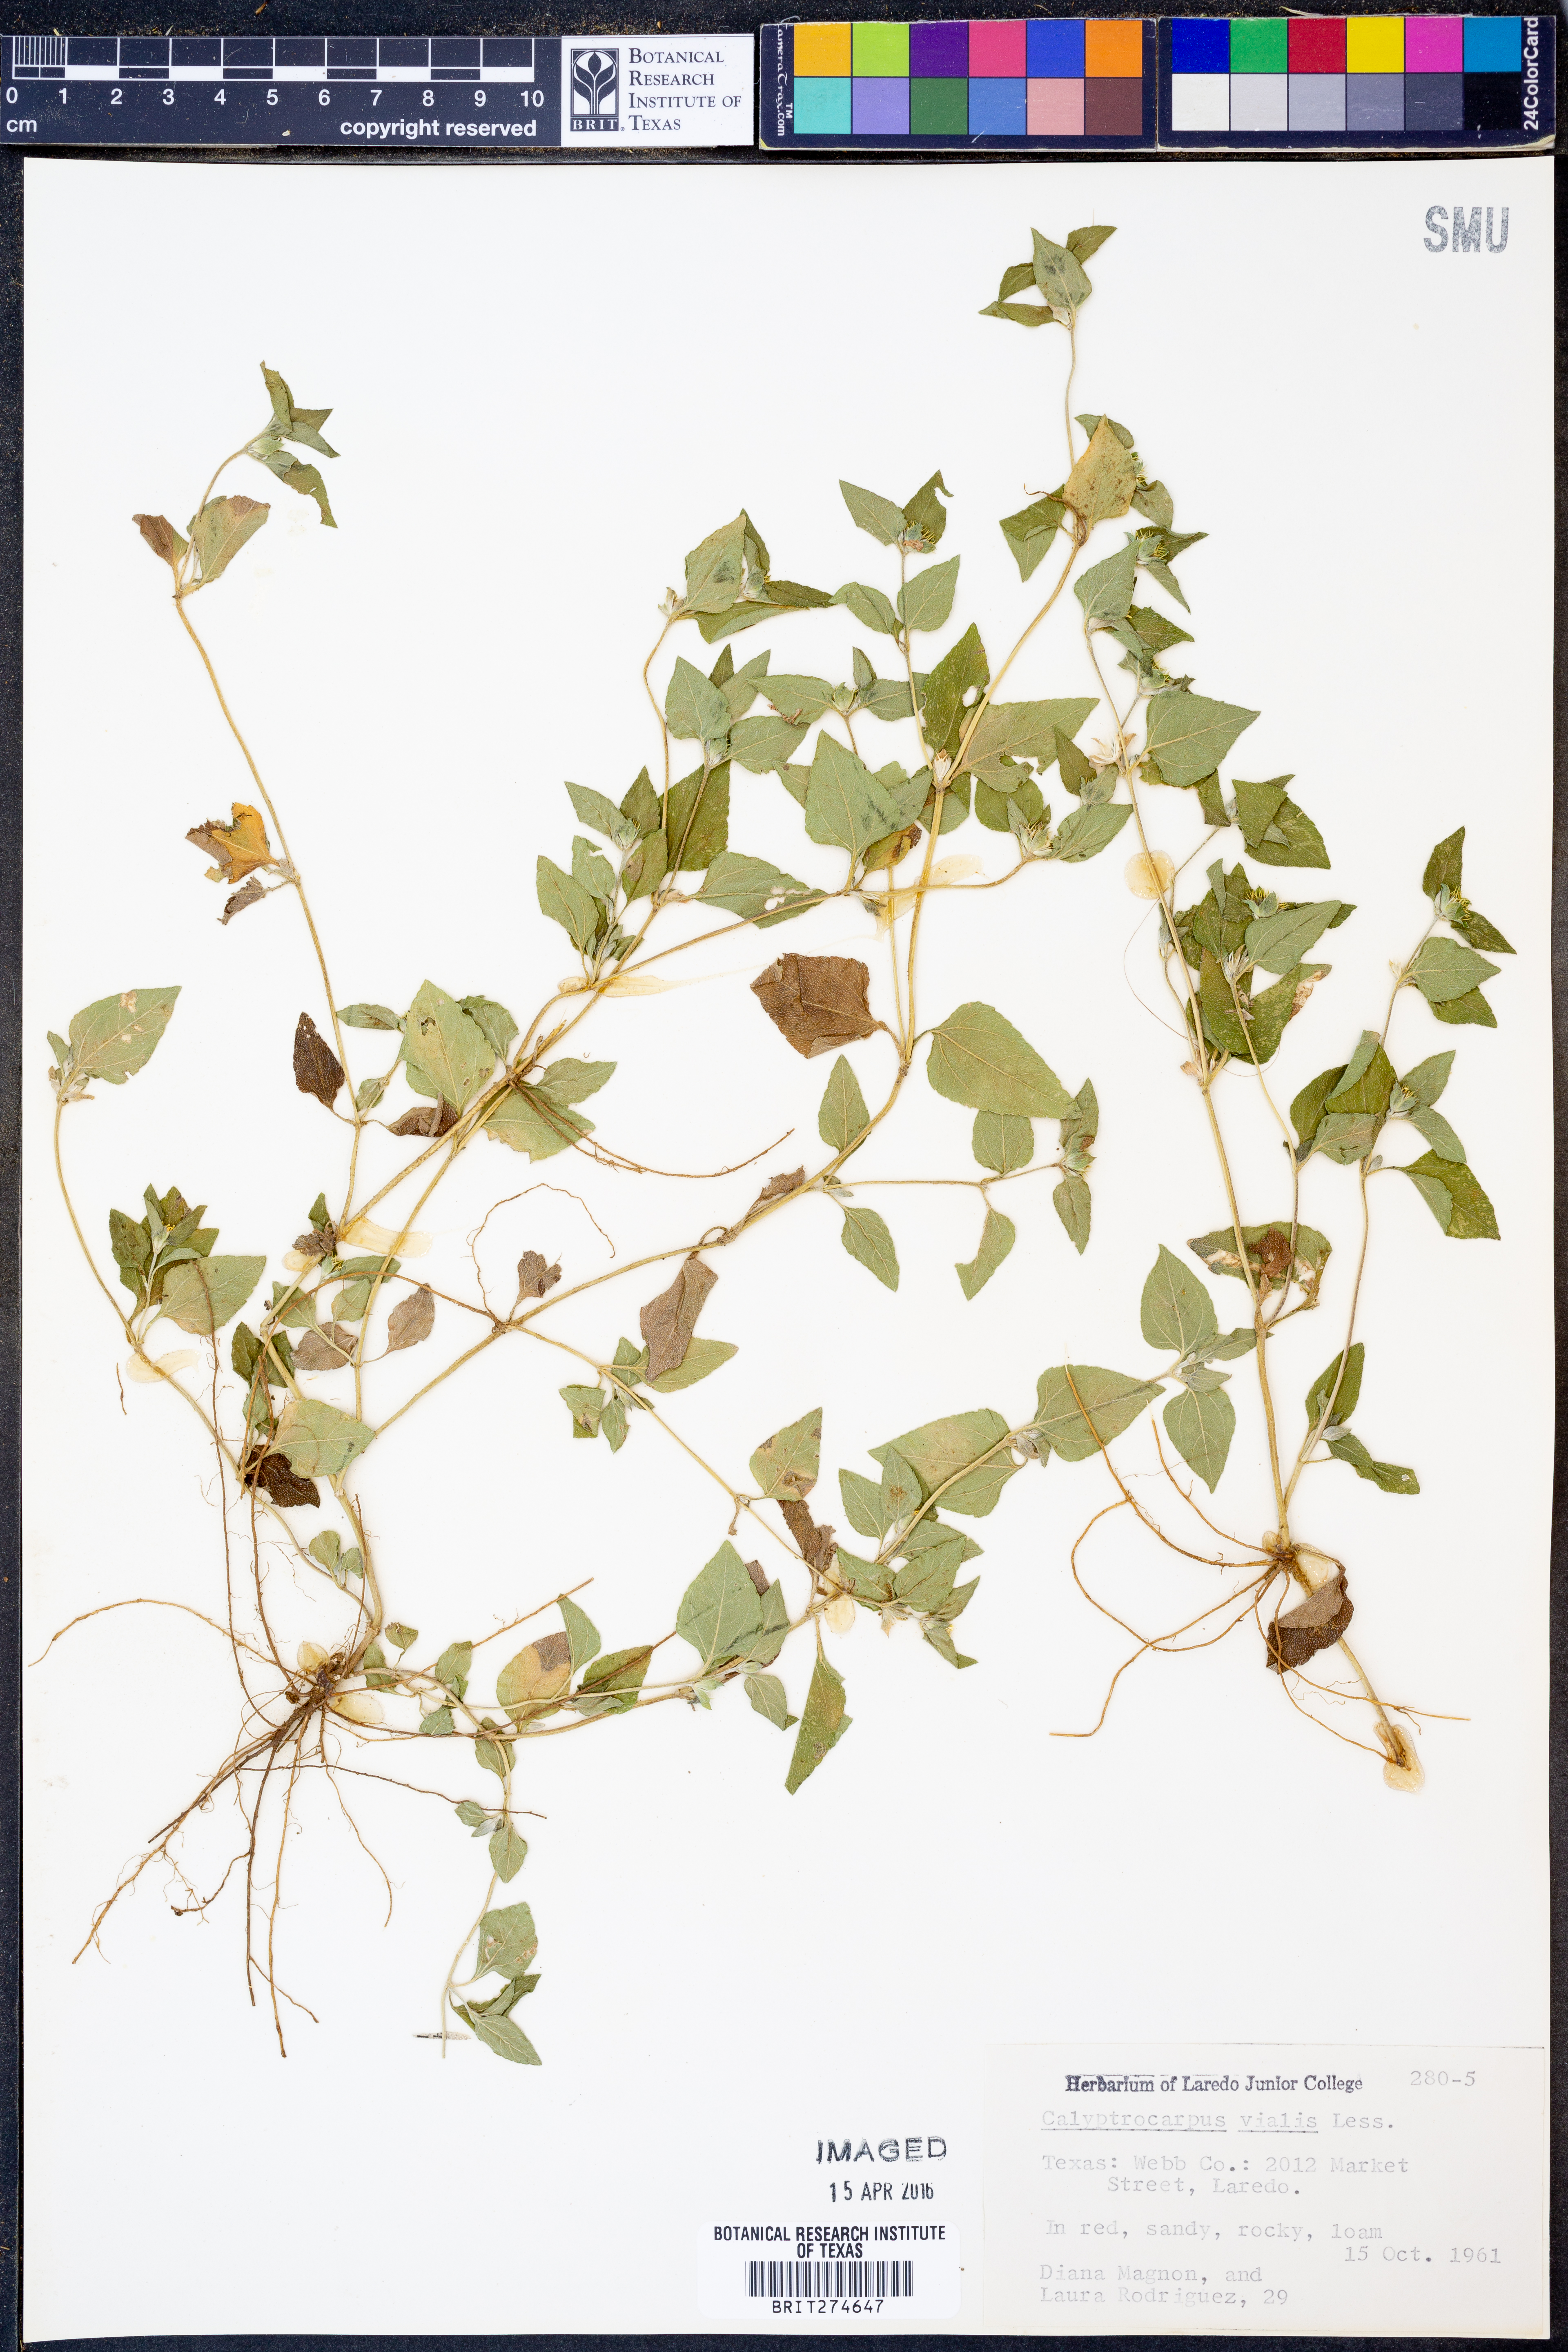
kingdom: Plantae
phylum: Tracheophyta
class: Magnoliopsida
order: Asterales
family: Asteraceae
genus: Calyptocarpus
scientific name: Calyptocarpus vialis
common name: Straggler daisy
